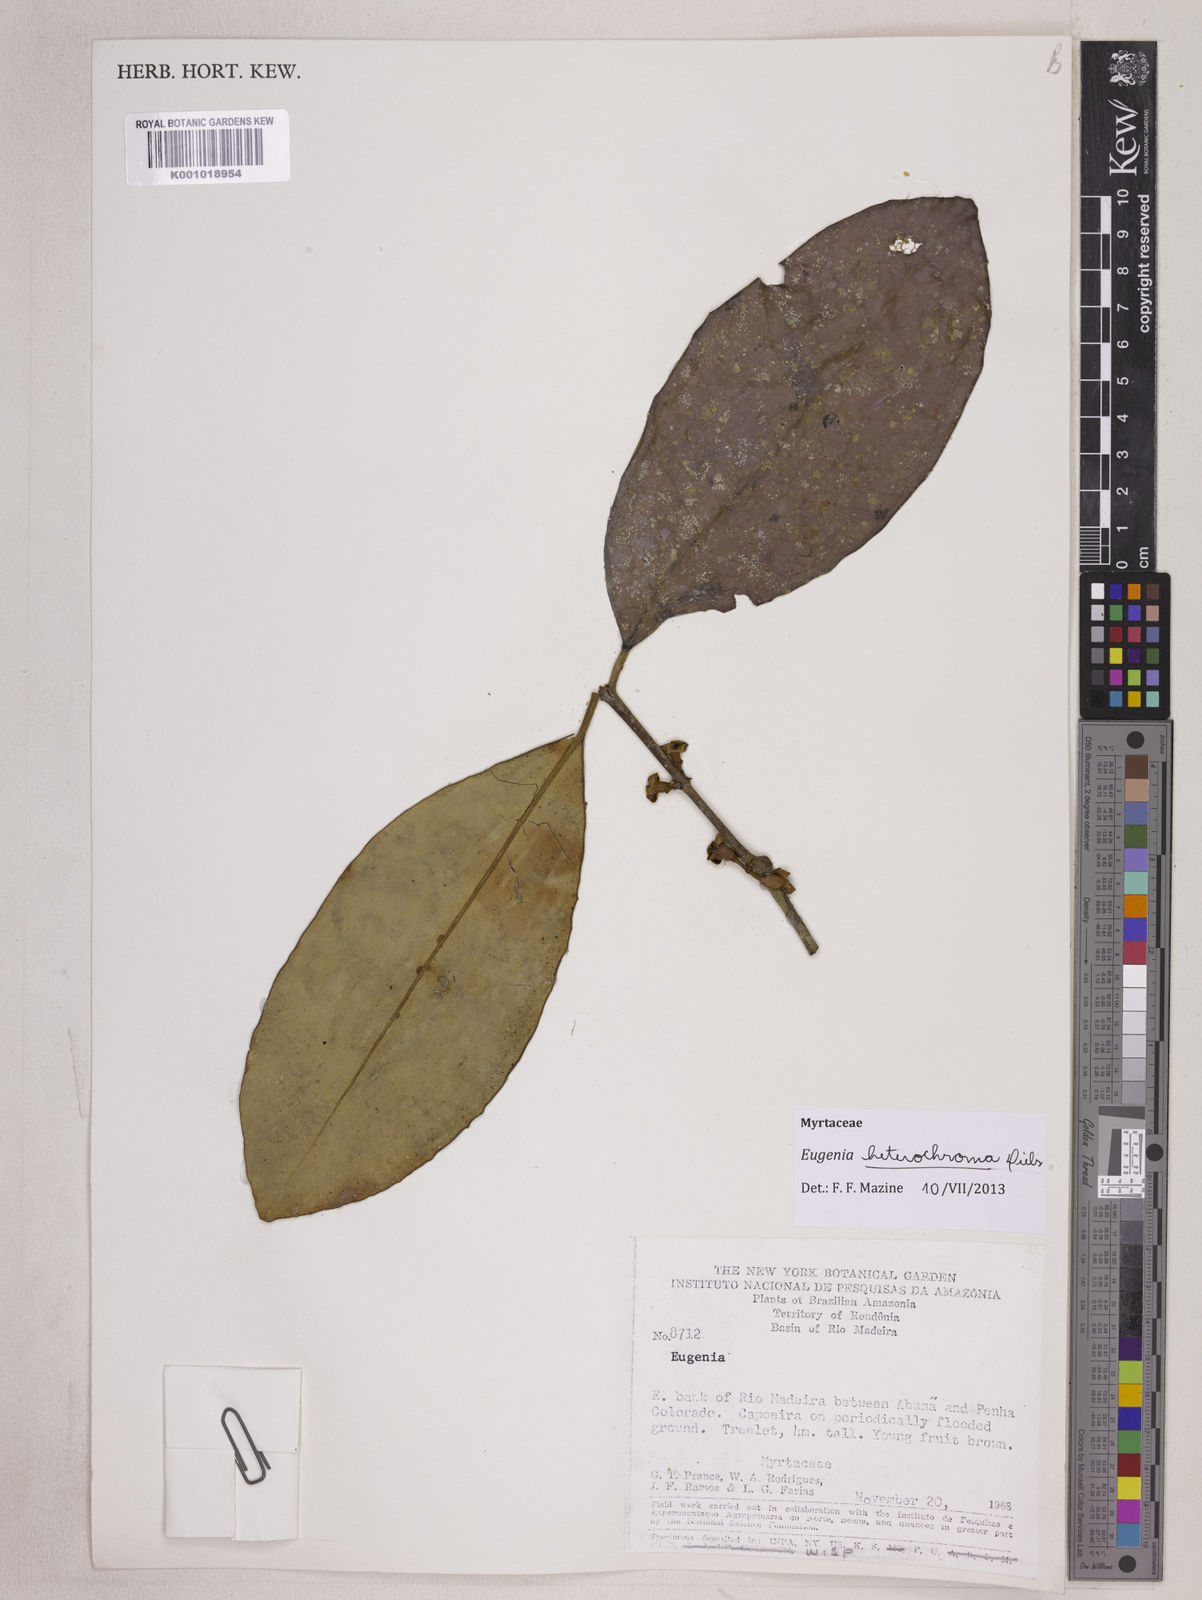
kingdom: Plantae
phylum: Tracheophyta
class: Magnoliopsida
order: Myrtales
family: Myrtaceae
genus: Eugenia
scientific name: Eugenia heterochroma
